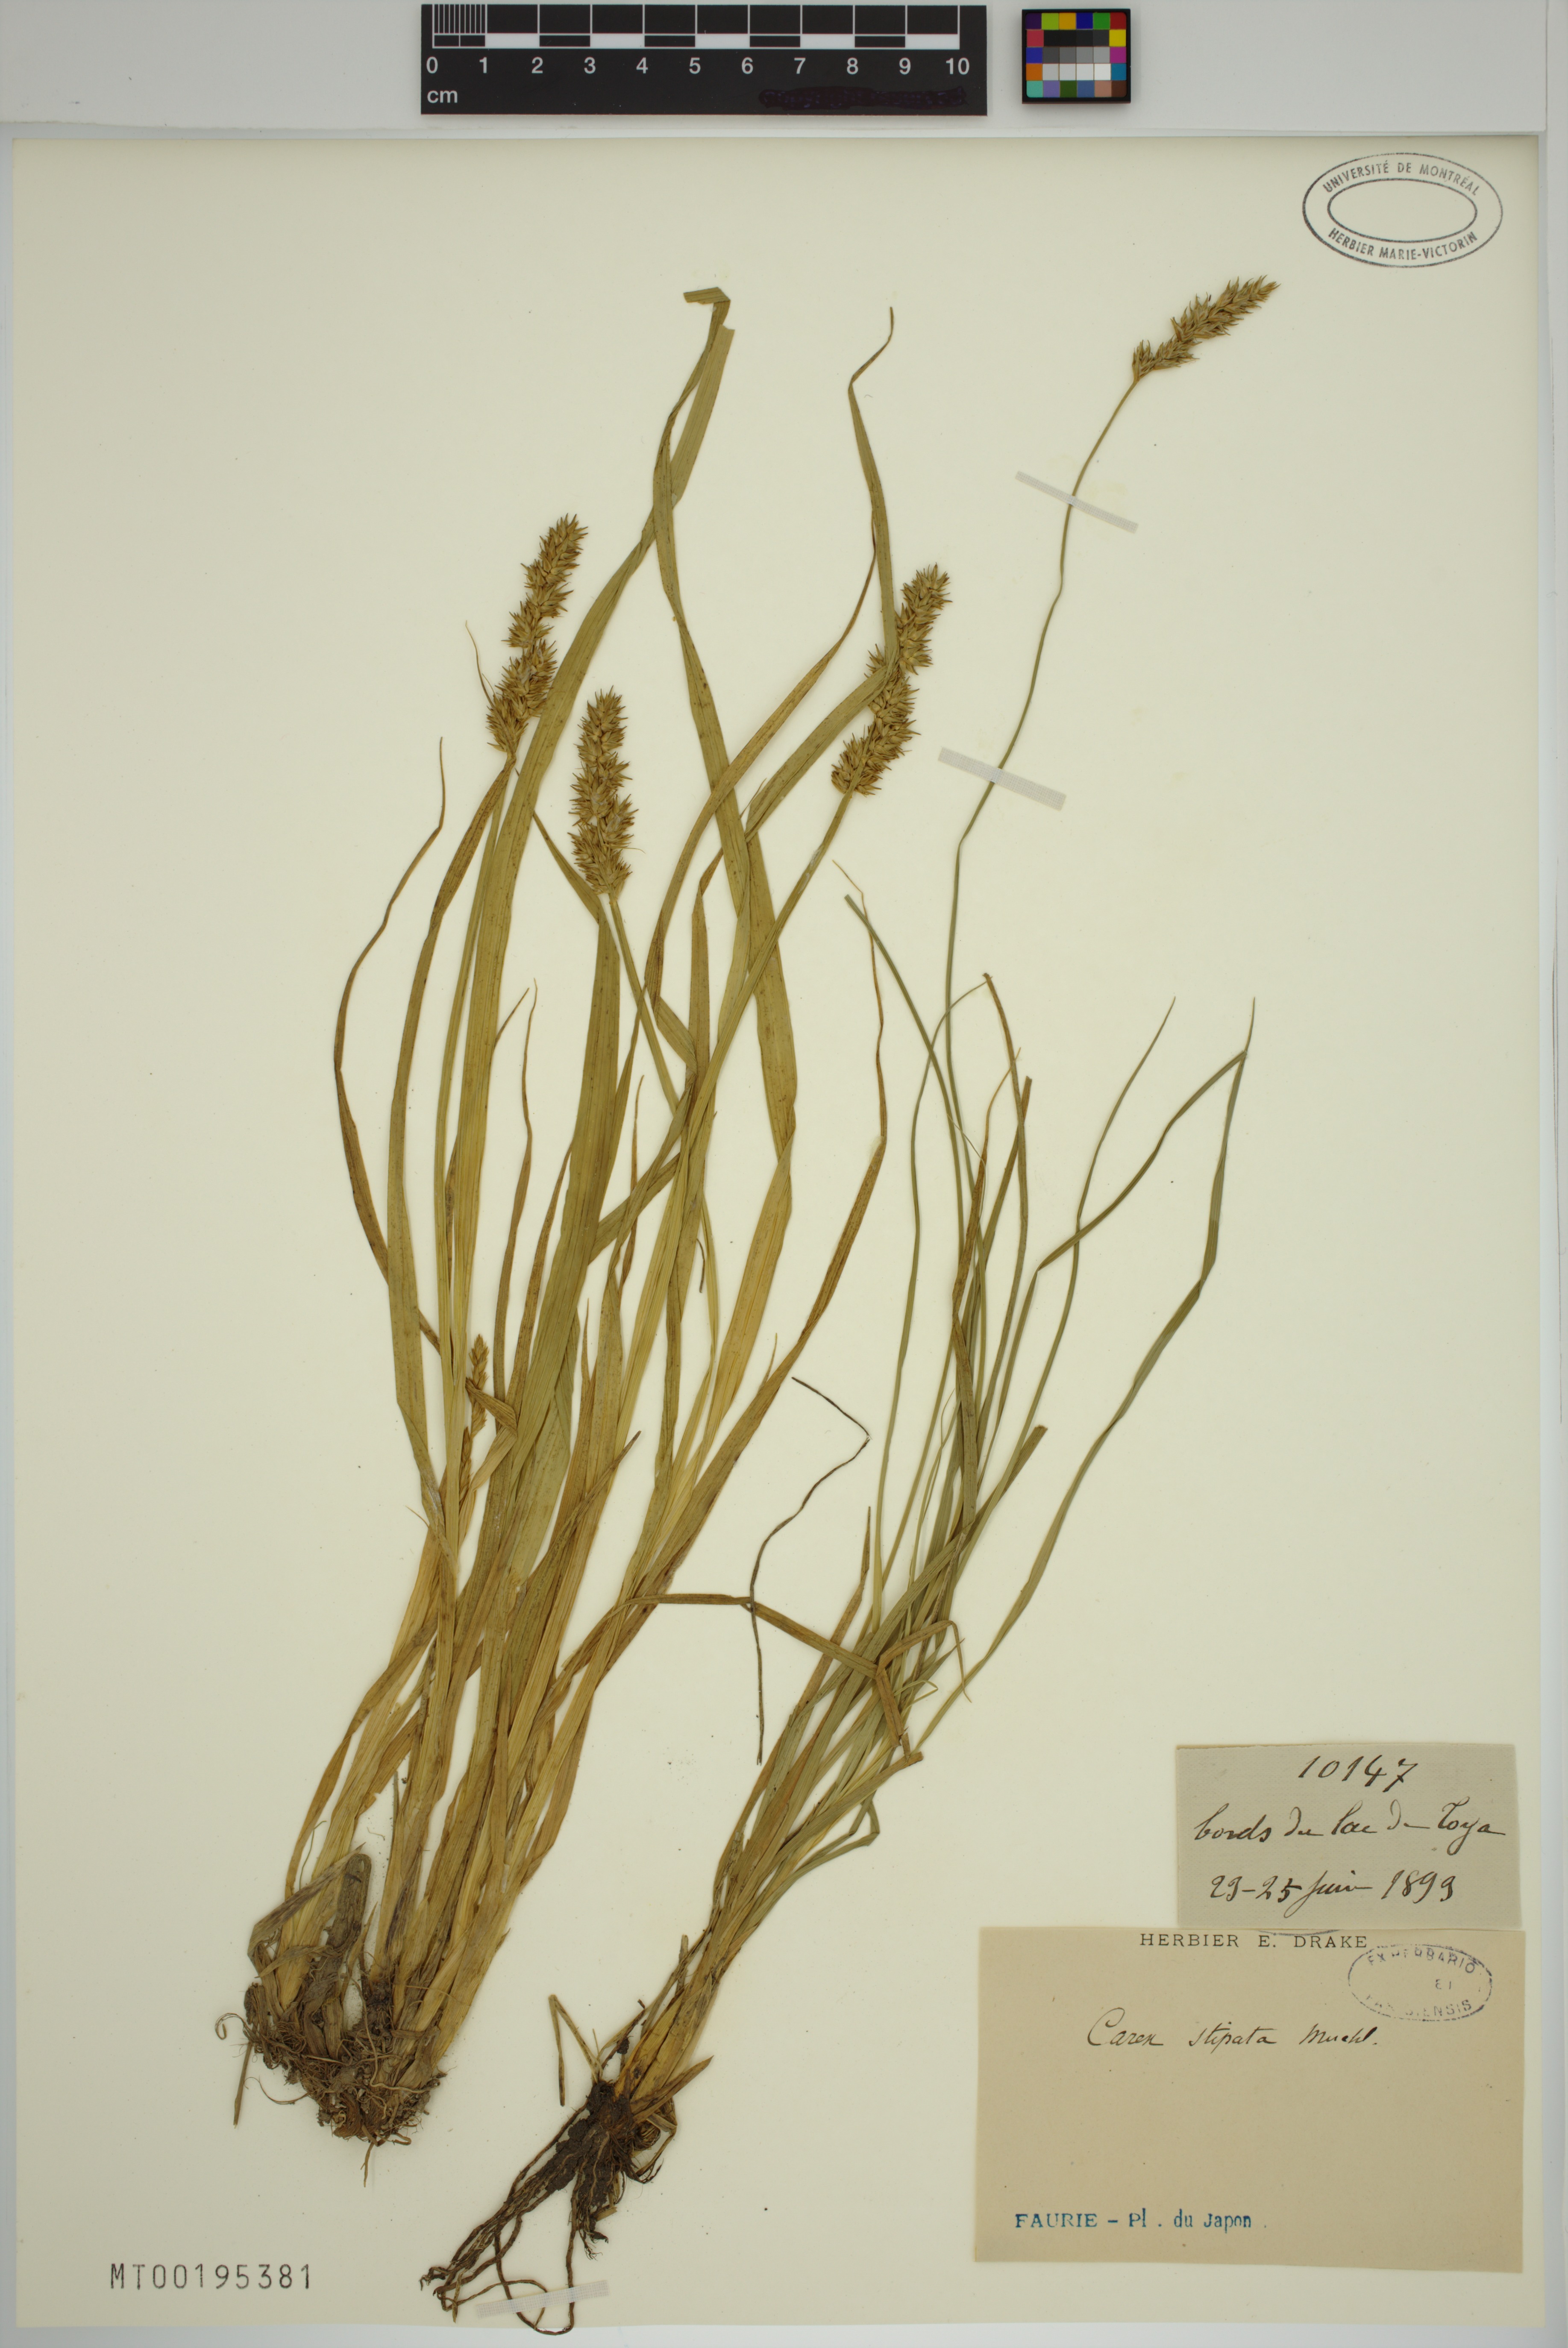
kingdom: Plantae
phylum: Tracheophyta
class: Liliopsida
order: Poales
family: Cyperaceae
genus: Carex
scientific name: Carex stipata
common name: Awl-fruited sedge
